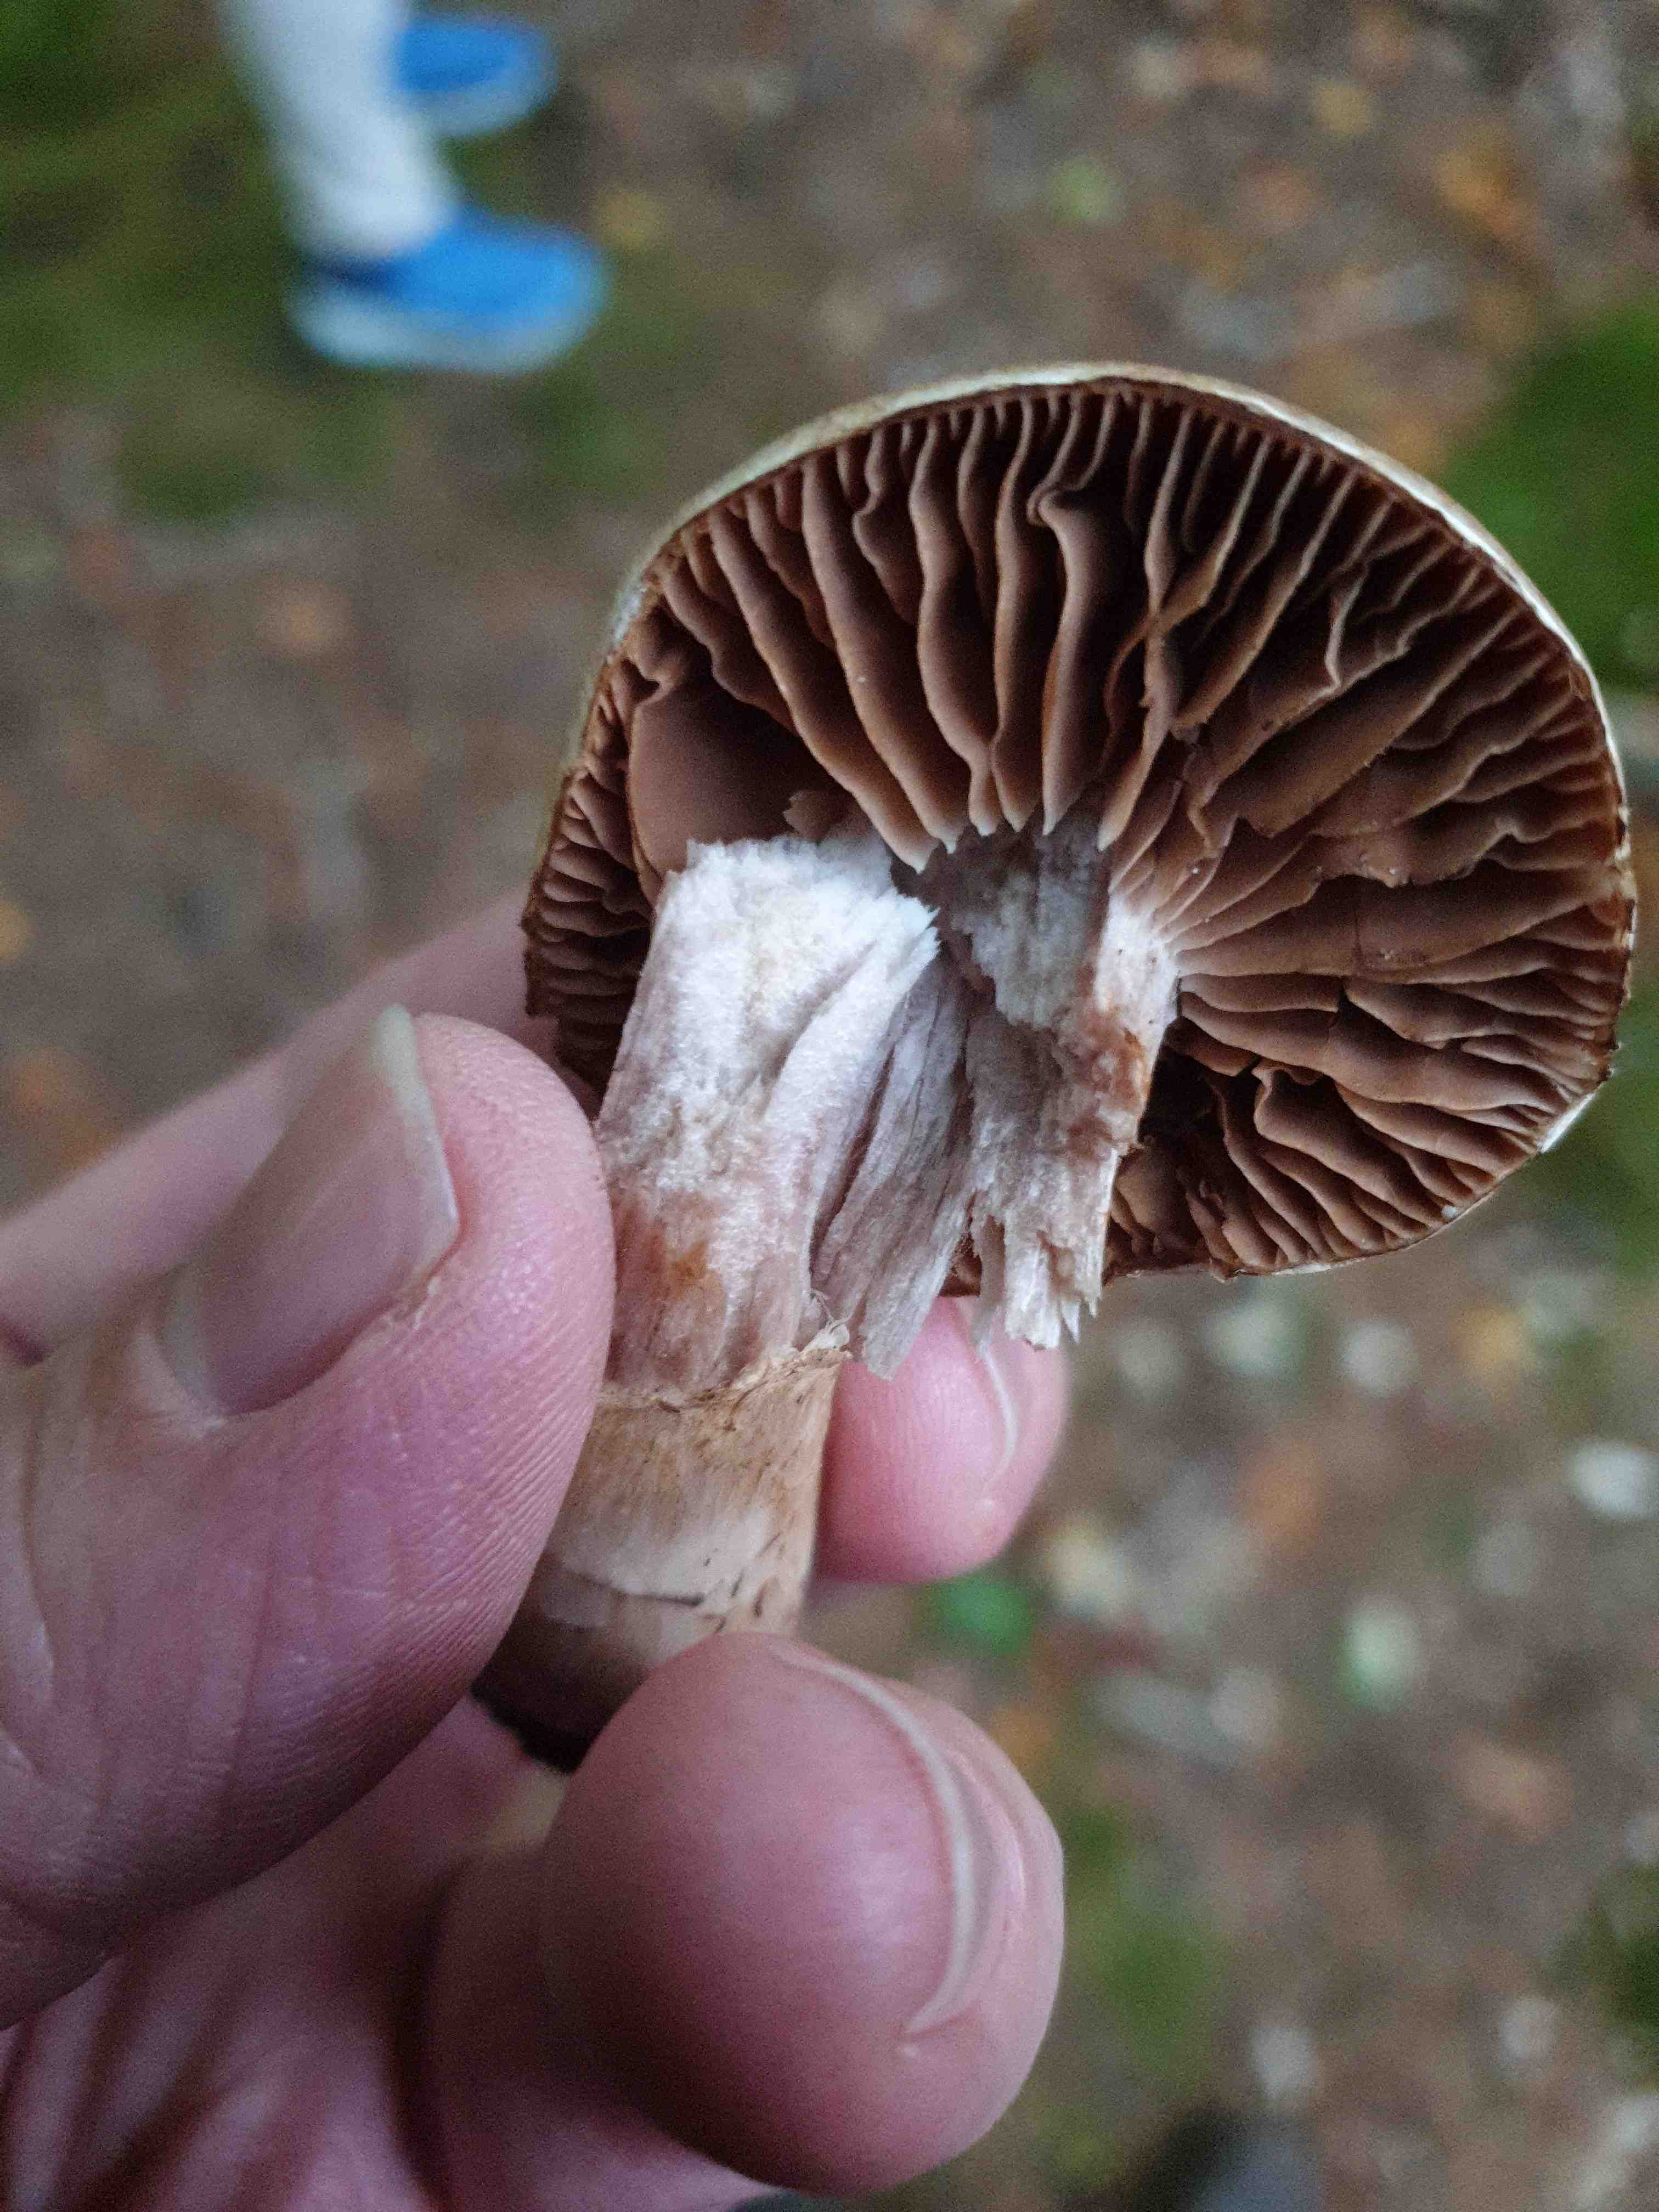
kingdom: Fungi
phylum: Basidiomycota
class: Agaricomycetes
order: Agaricales
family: Cortinariaceae
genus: Cortinarius
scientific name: Cortinarius torvus
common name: champignonagtig slørhat
